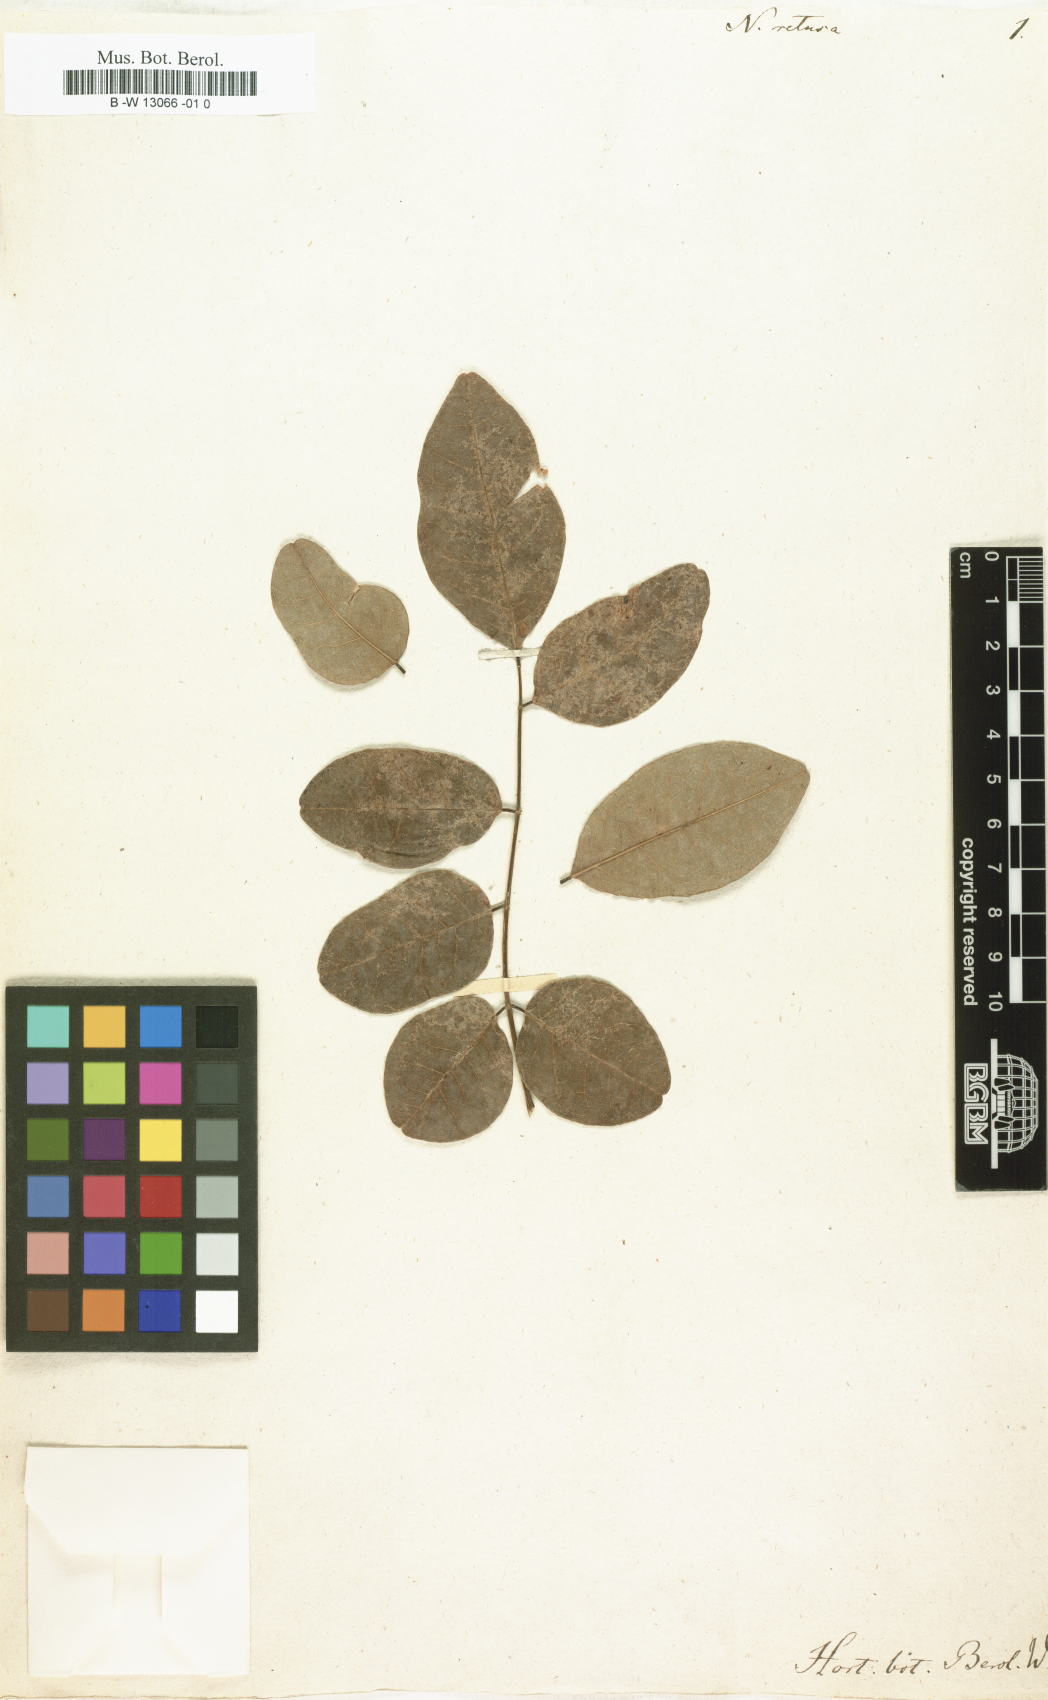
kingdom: Plantae
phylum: Tracheophyta
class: Magnoliopsida
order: Fabales
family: Fabaceae
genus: Nissolia
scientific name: Nissolia retusa
